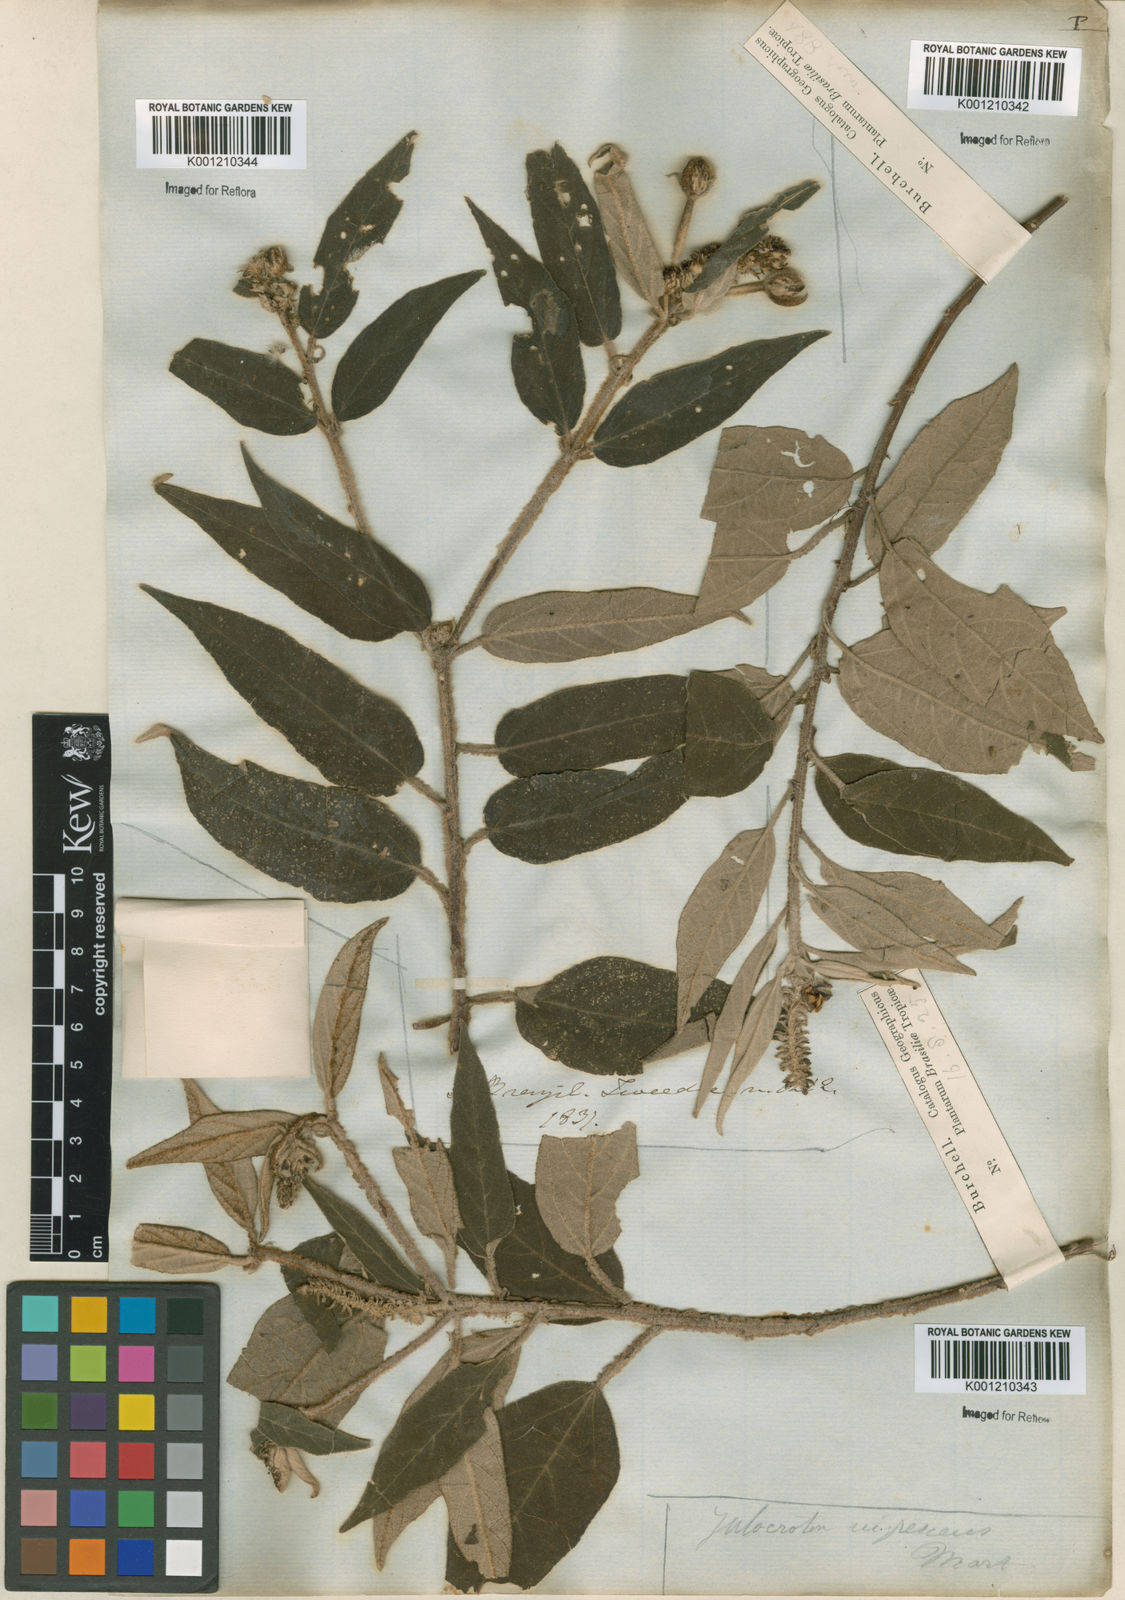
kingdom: Plantae
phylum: Tracheophyta
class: Magnoliopsida
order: Malpighiales
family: Euphorbiaceae
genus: Croton
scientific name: Croton gnaphaloides
